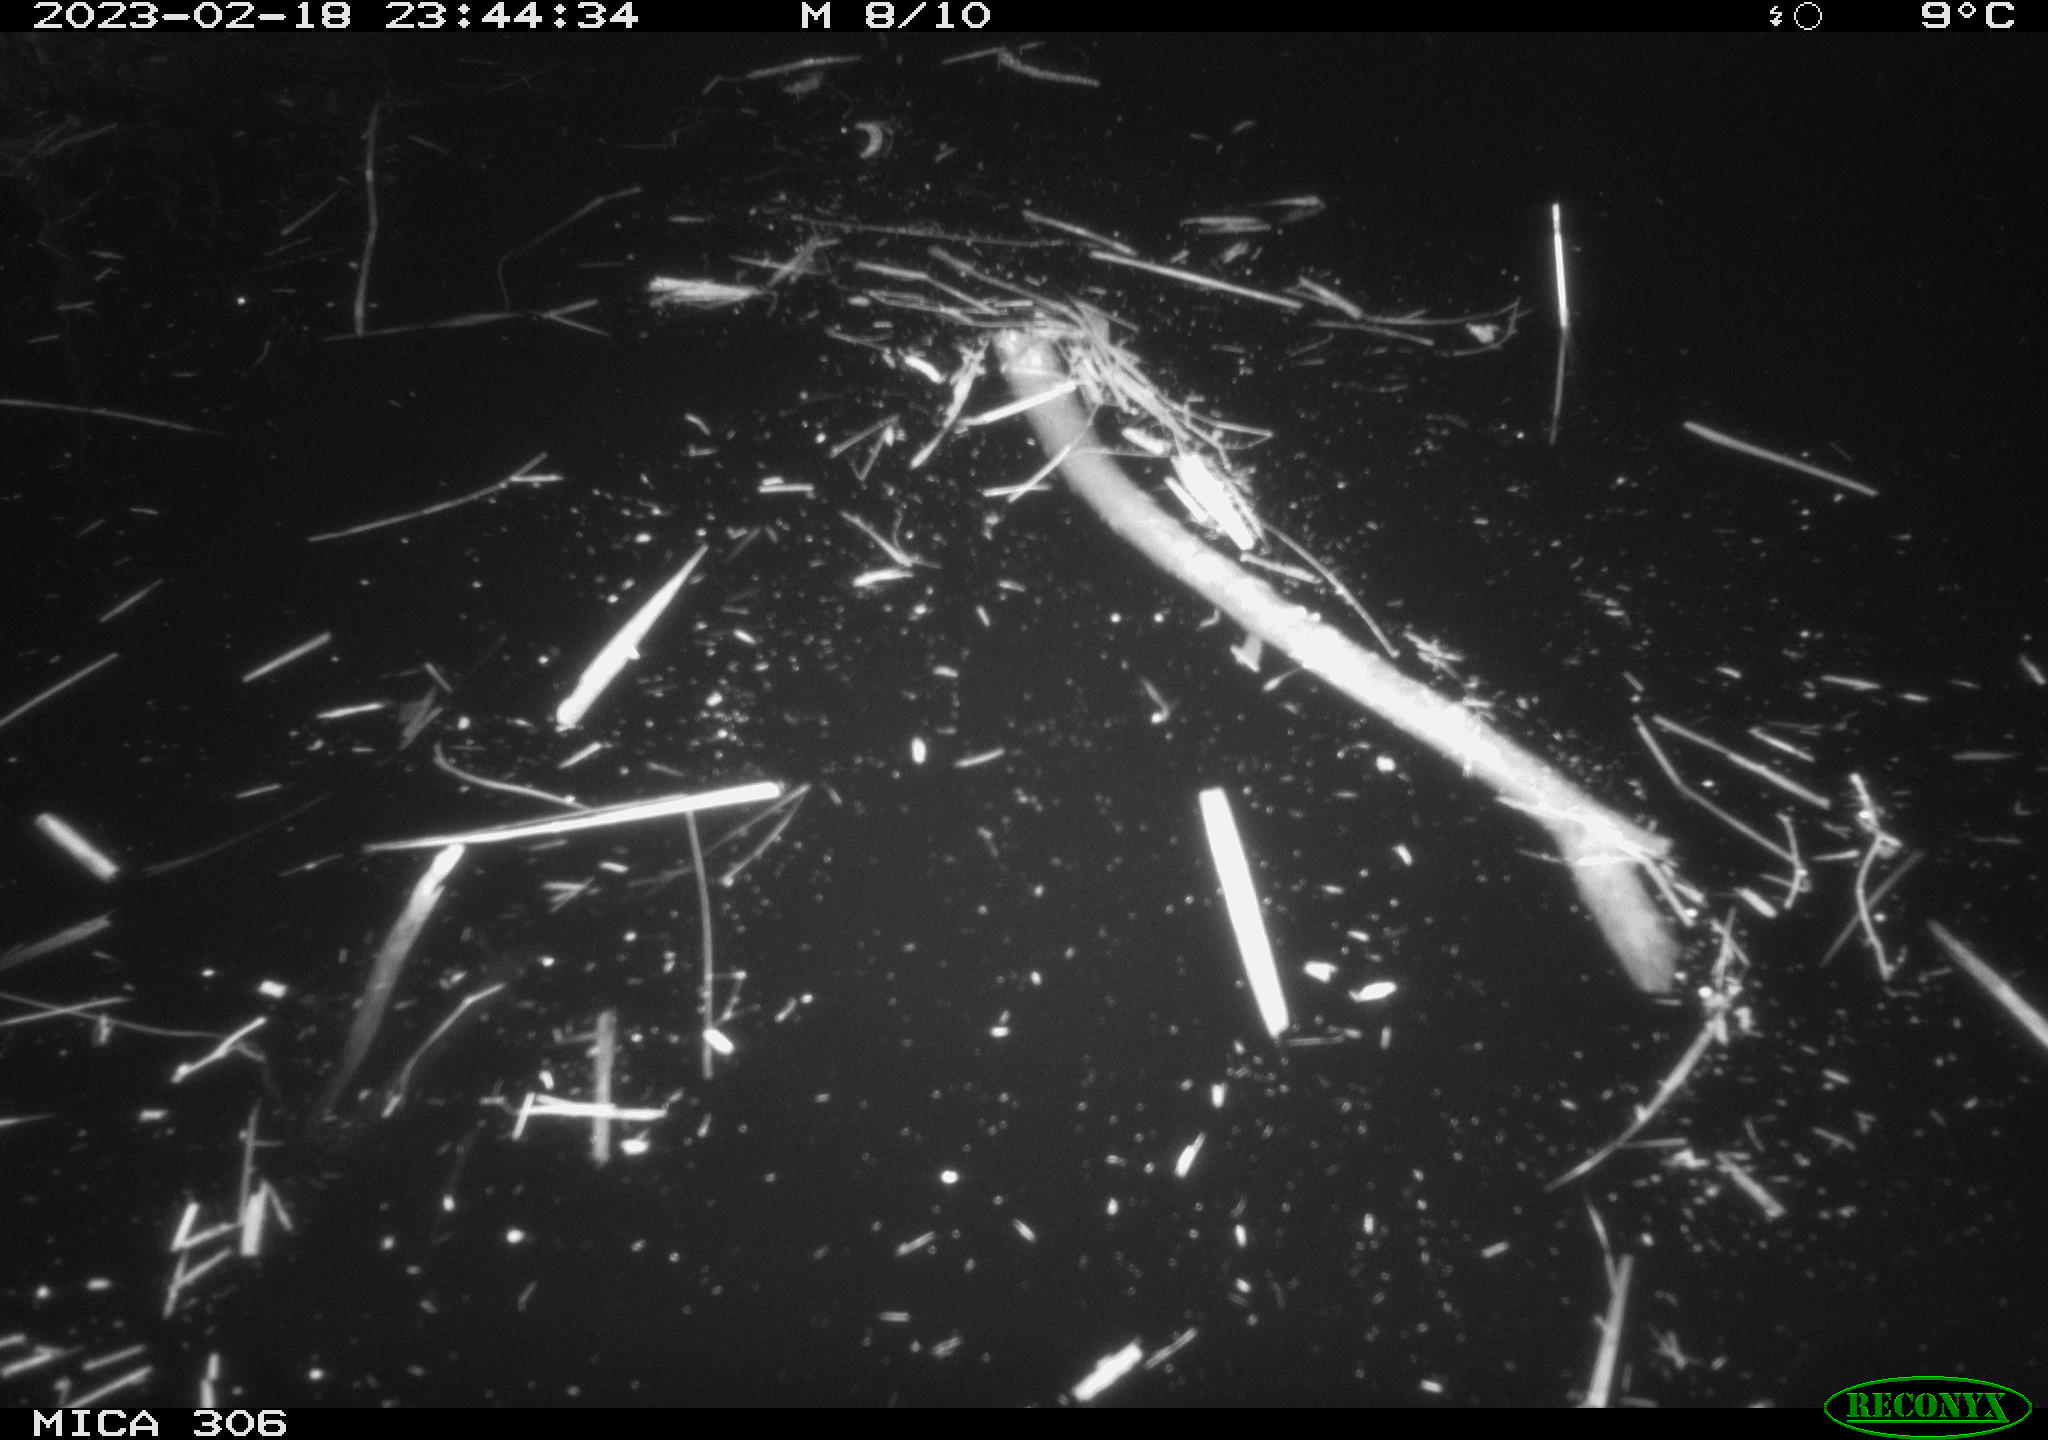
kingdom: Animalia
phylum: Chordata
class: Mammalia
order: Rodentia
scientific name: Rodentia
